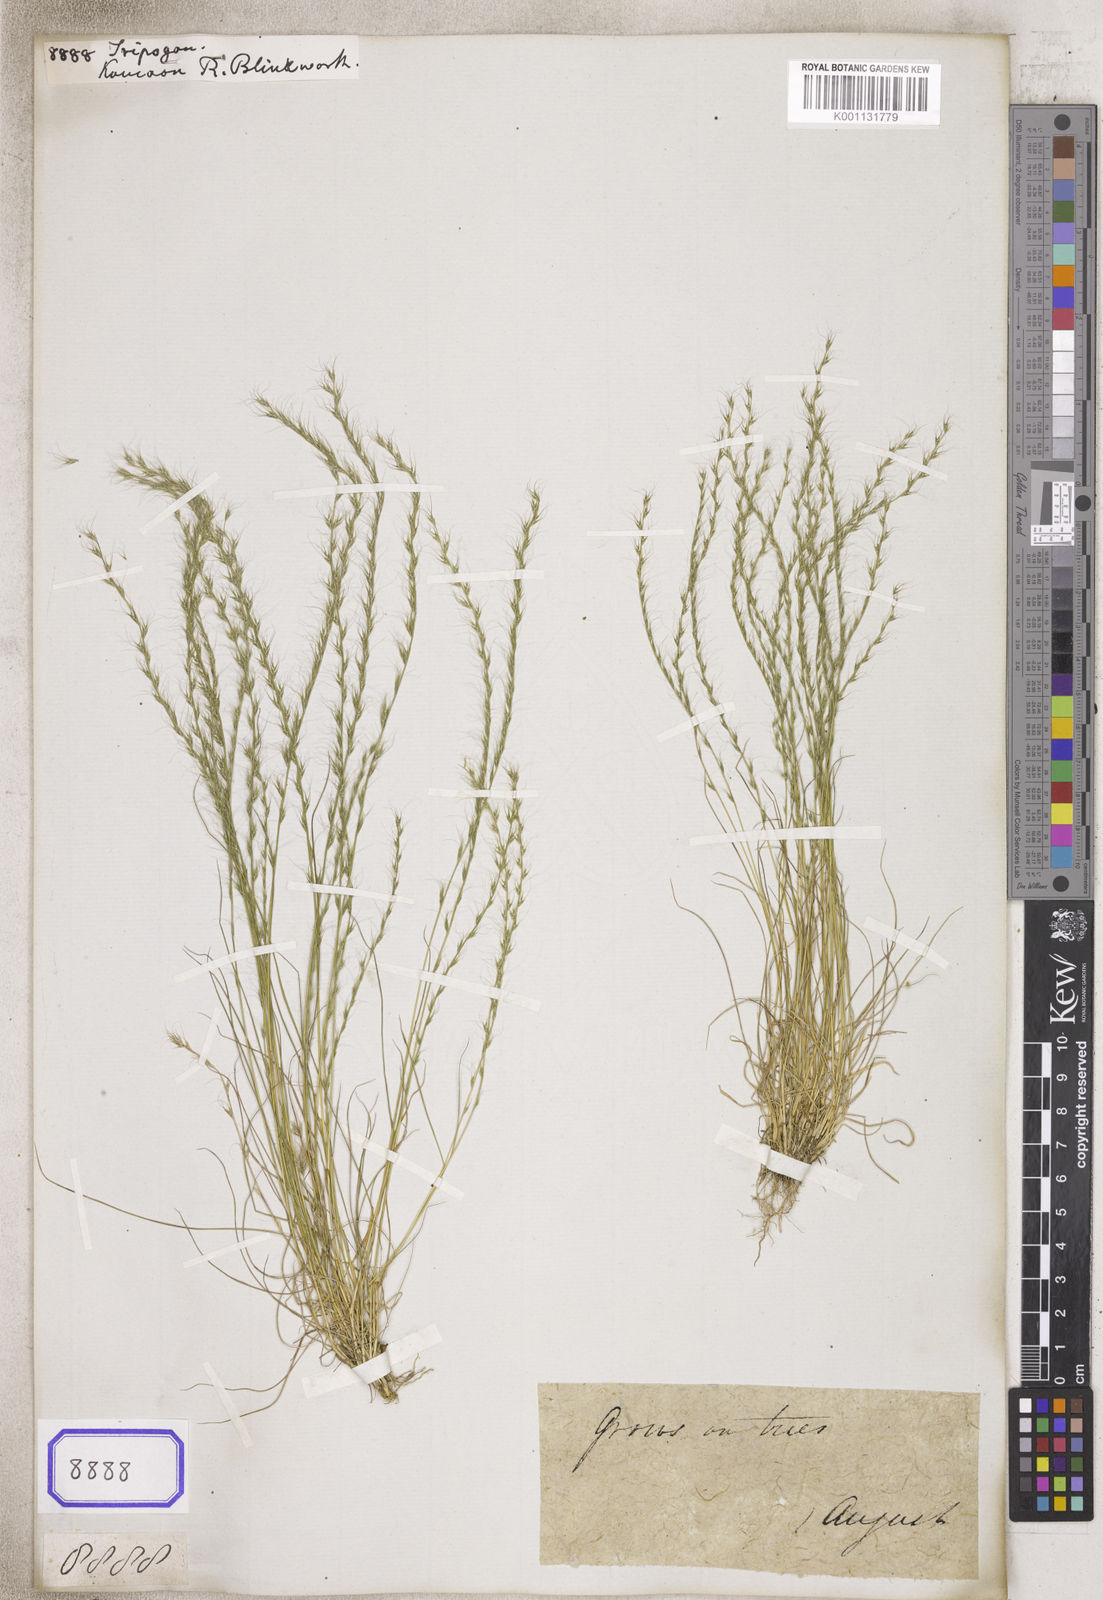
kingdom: Plantae
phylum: Tracheophyta
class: Liliopsida
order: Poales
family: Poaceae
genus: Tripogon
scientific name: Tripogon
